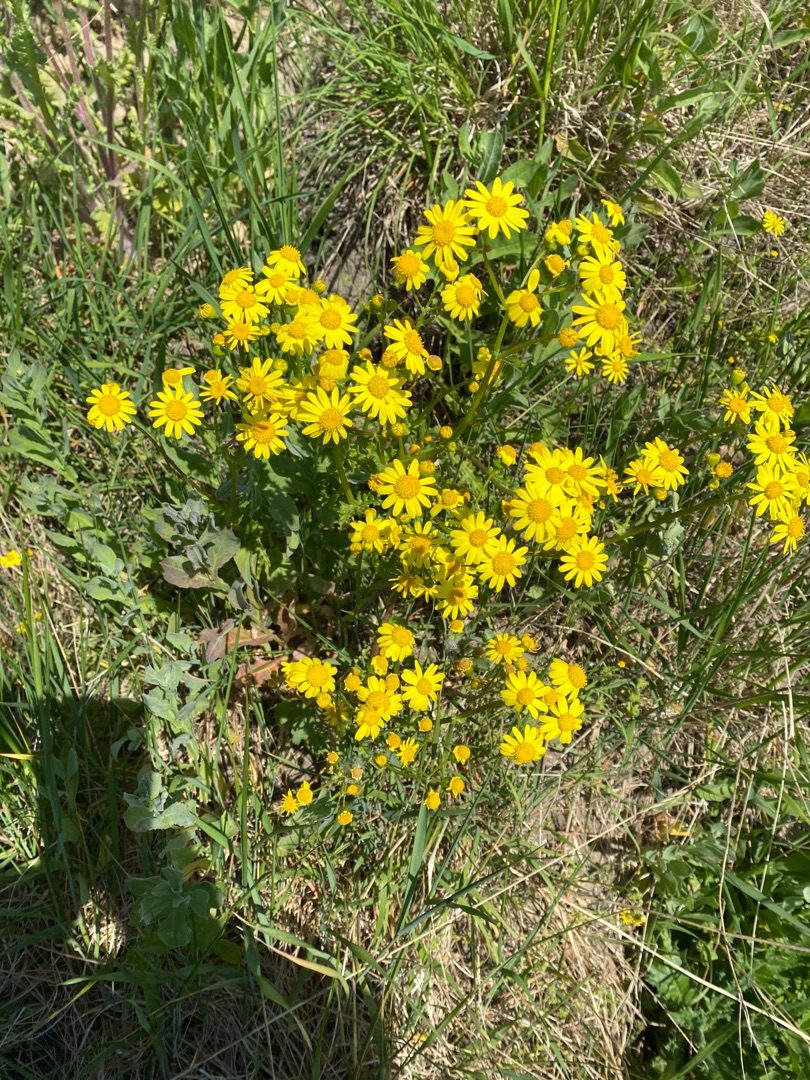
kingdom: Plantae
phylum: Tracheophyta
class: Magnoliopsida
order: Asterales
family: Asteraceae
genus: Senecio
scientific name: Senecio leucanthemifolius
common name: Vår-brandbæger
